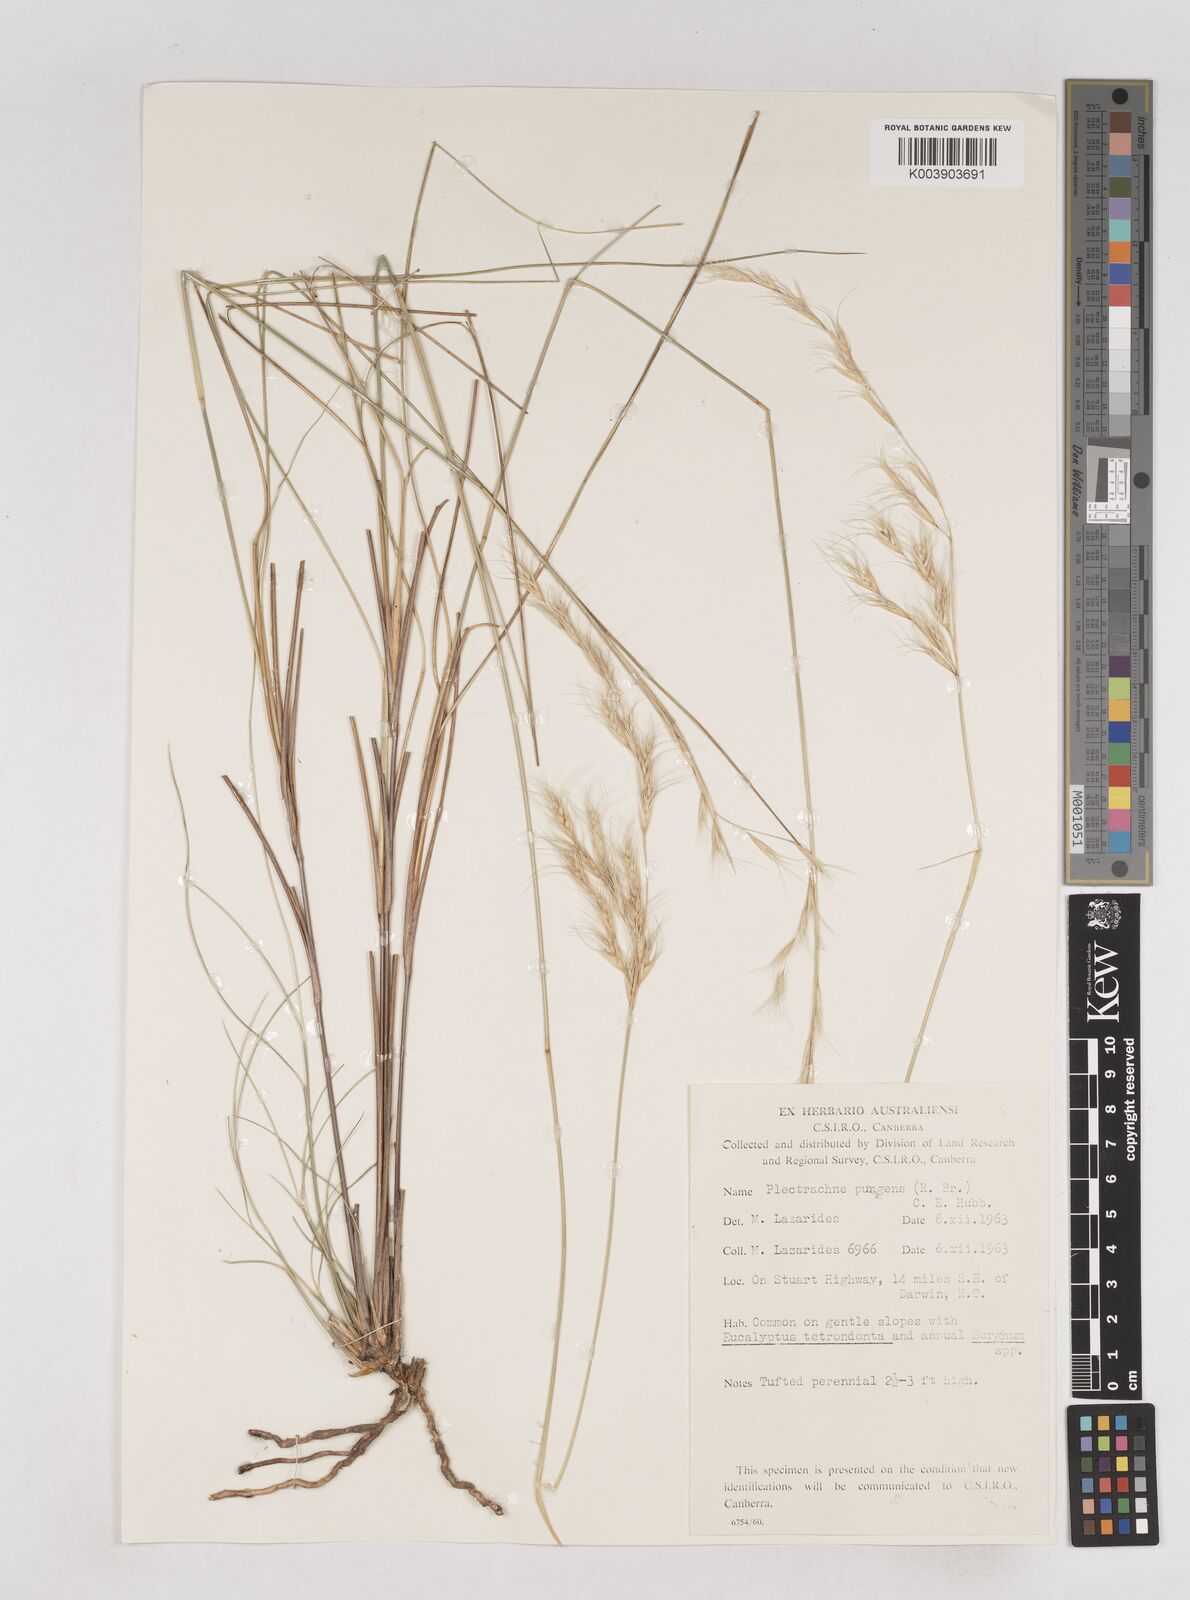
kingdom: Plantae
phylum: Tracheophyta
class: Liliopsida
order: Poales
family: Poaceae
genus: Triodia
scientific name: Triodia bitextura
